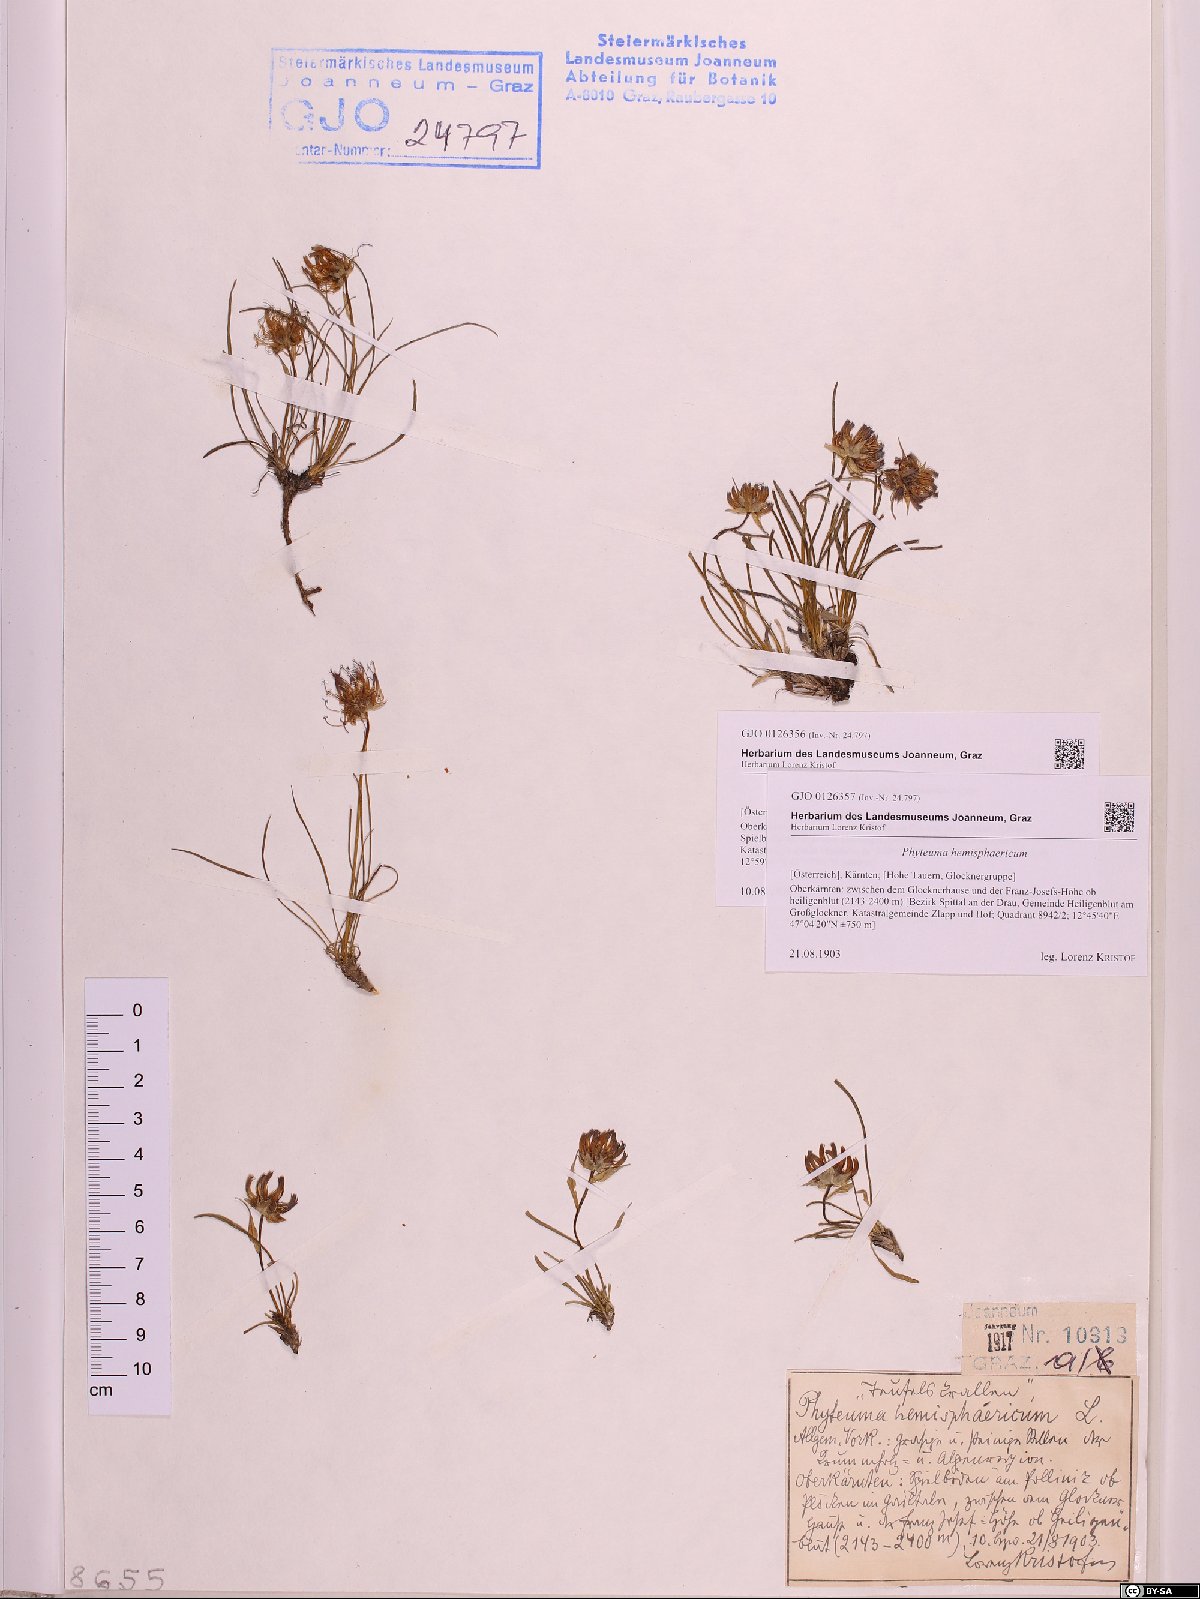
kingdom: Plantae
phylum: Tracheophyta
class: Magnoliopsida
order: Asterales
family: Campanulaceae
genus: Phyteuma
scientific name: Phyteuma hemisphaericum
